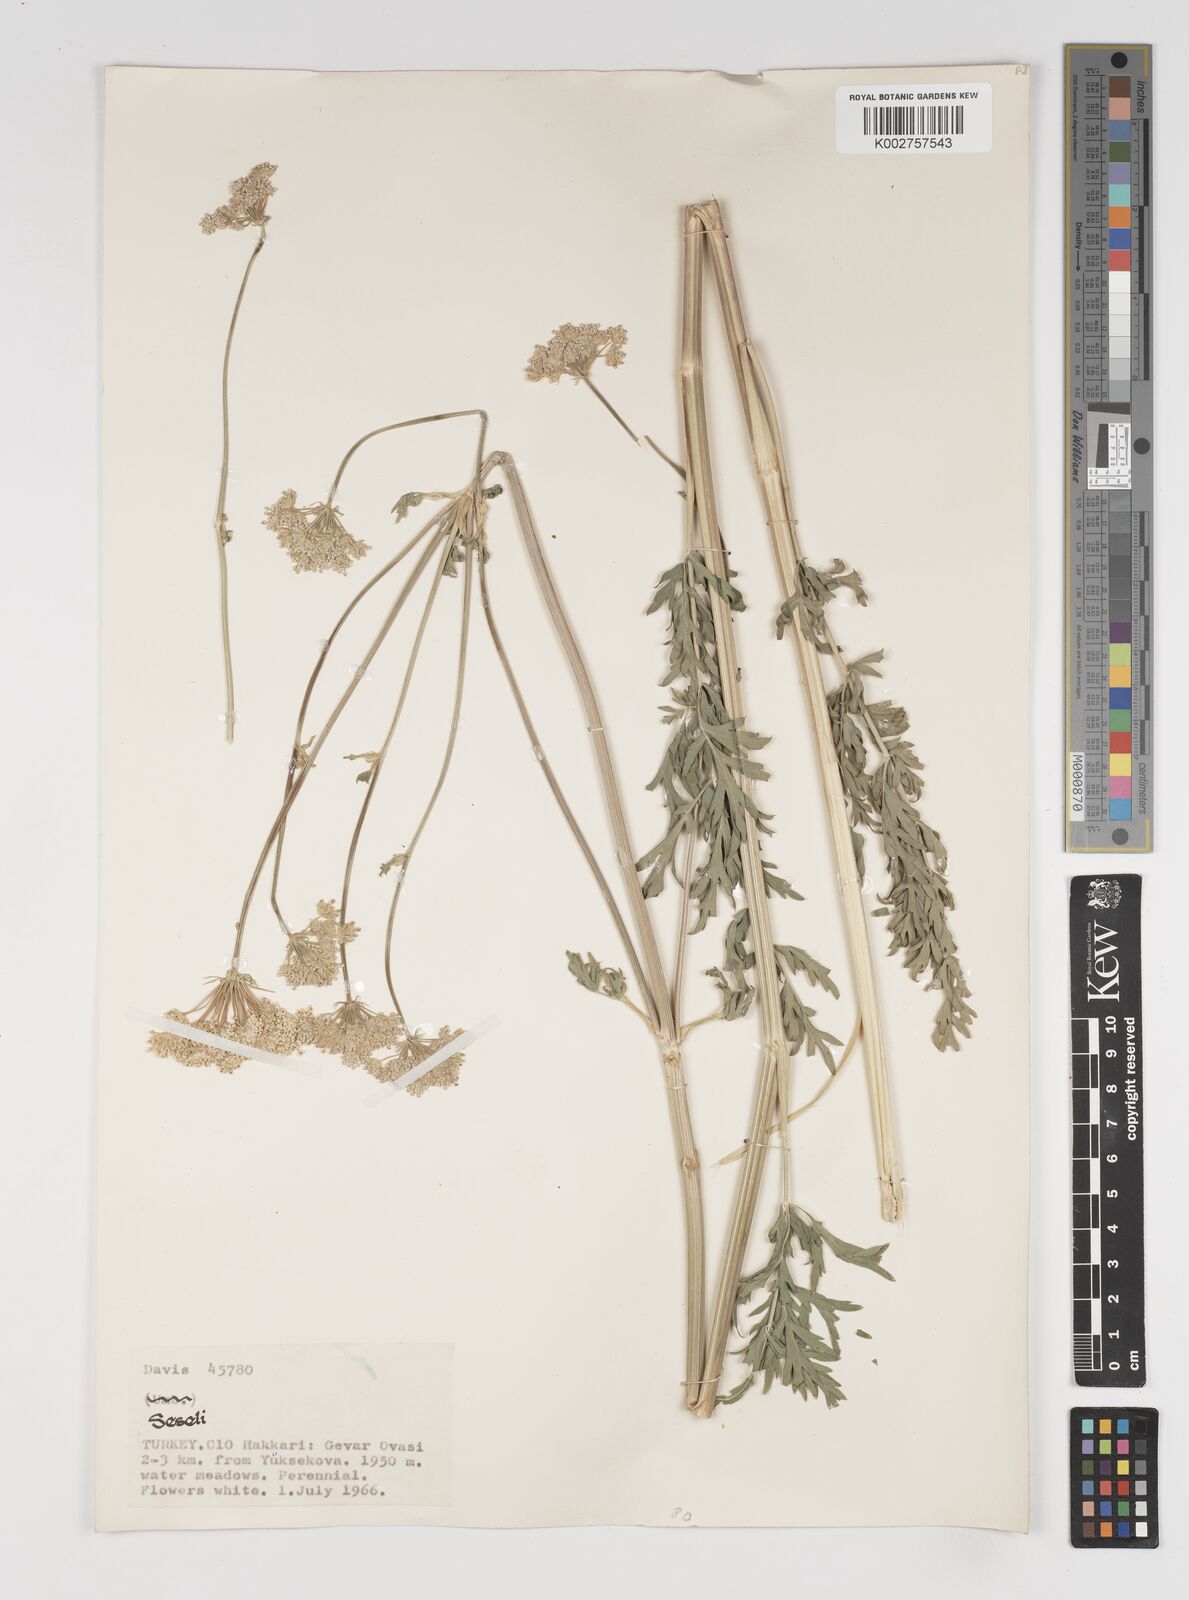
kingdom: Plantae
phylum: Tracheophyta
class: Magnoliopsida
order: Apiales
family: Apiaceae
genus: Seseli
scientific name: Seseli libanotis
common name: Mooncarrot
